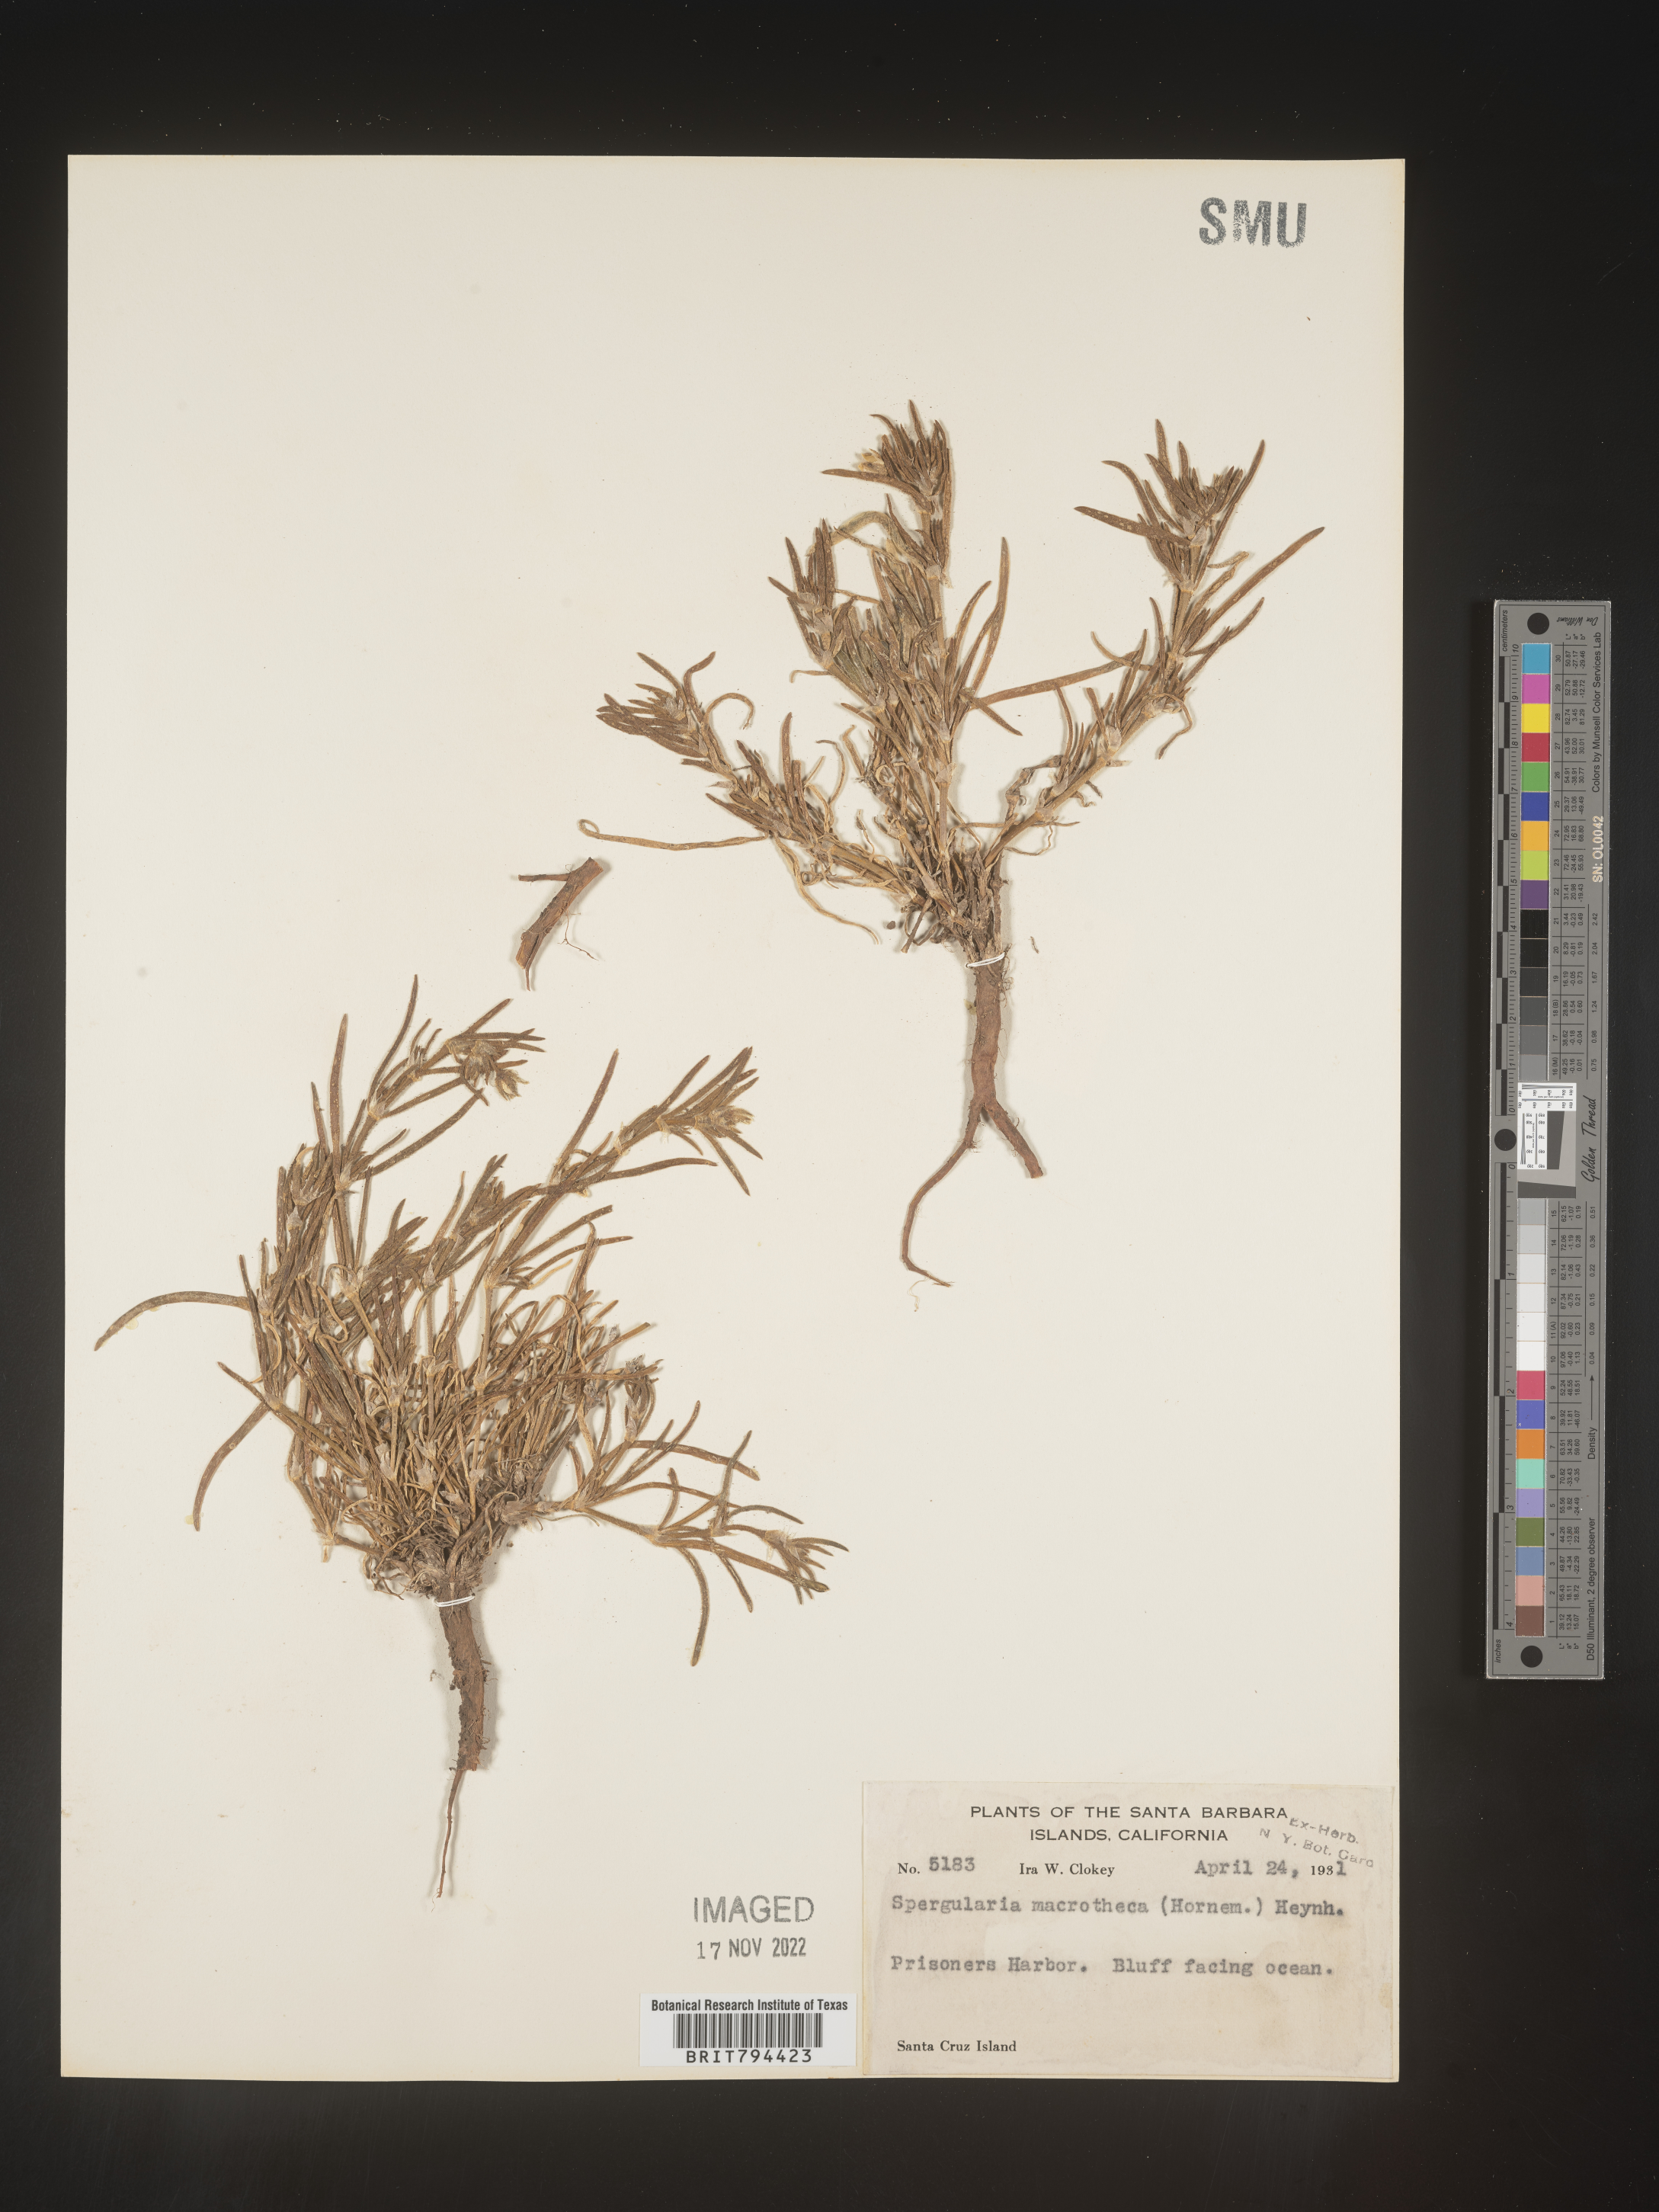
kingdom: Plantae
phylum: Tracheophyta
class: Magnoliopsida
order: Caryophyllales
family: Caryophyllaceae
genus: Spergularia
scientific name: Spergularia macrotheca
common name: Beach sand-spurrey
